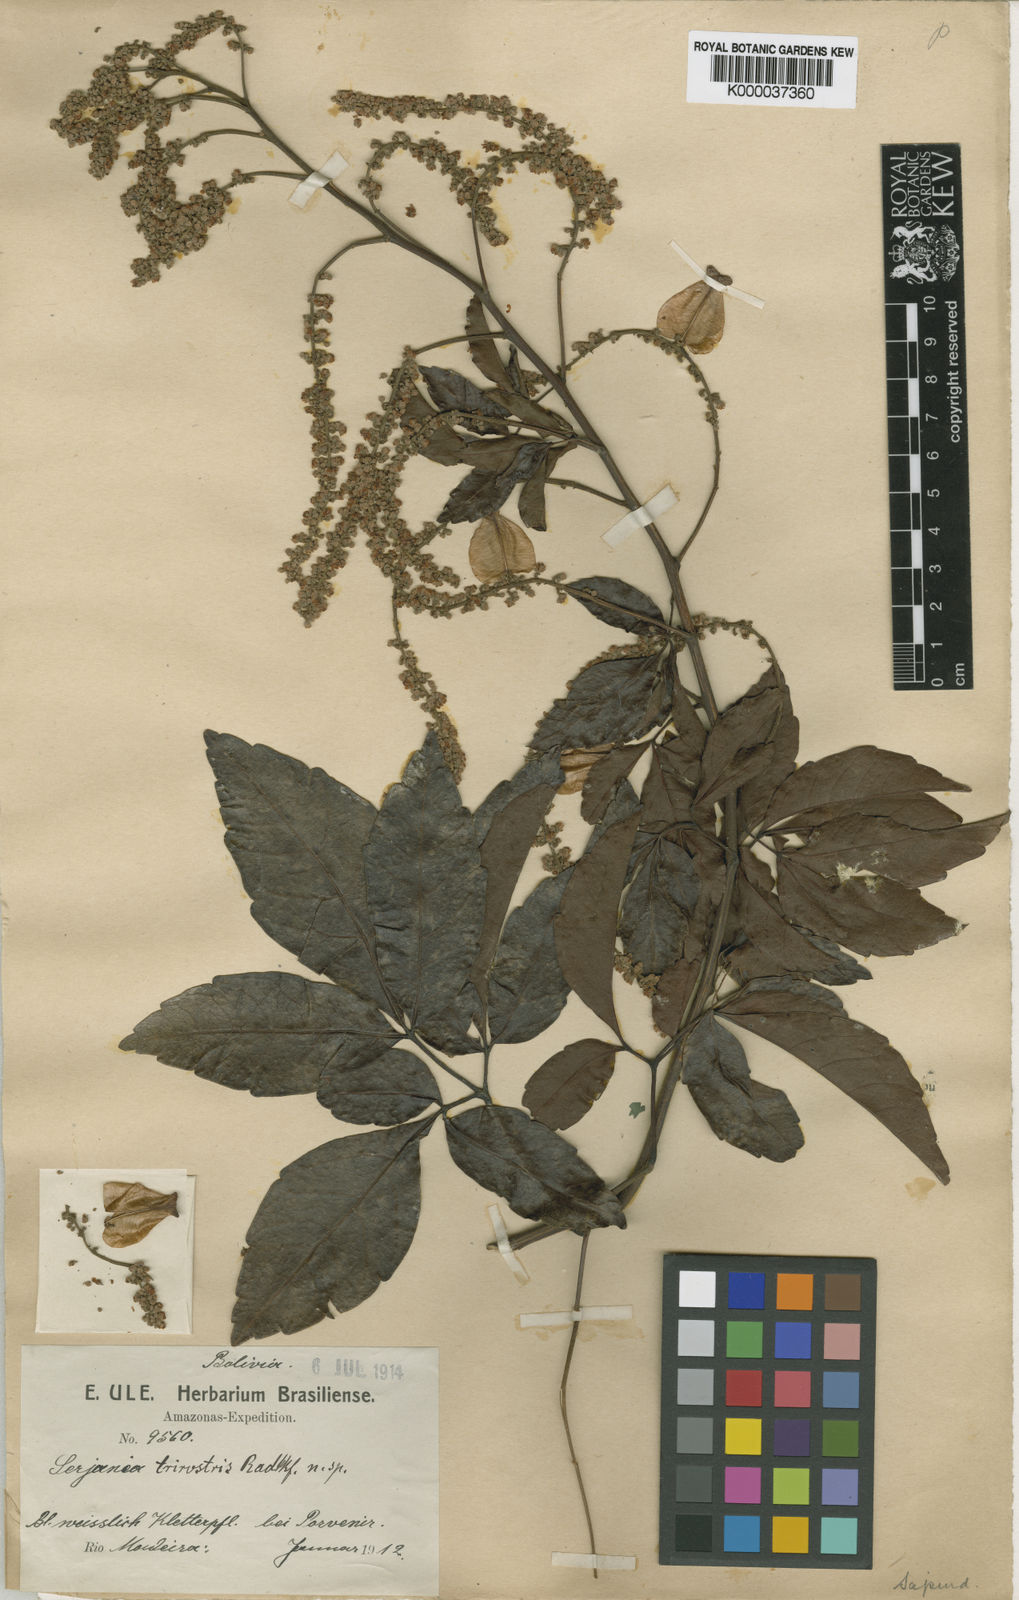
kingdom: Plantae
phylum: Tracheophyta
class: Magnoliopsida
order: Sapindales
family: Sapindaceae
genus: Serjania
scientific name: Serjania trirostris
